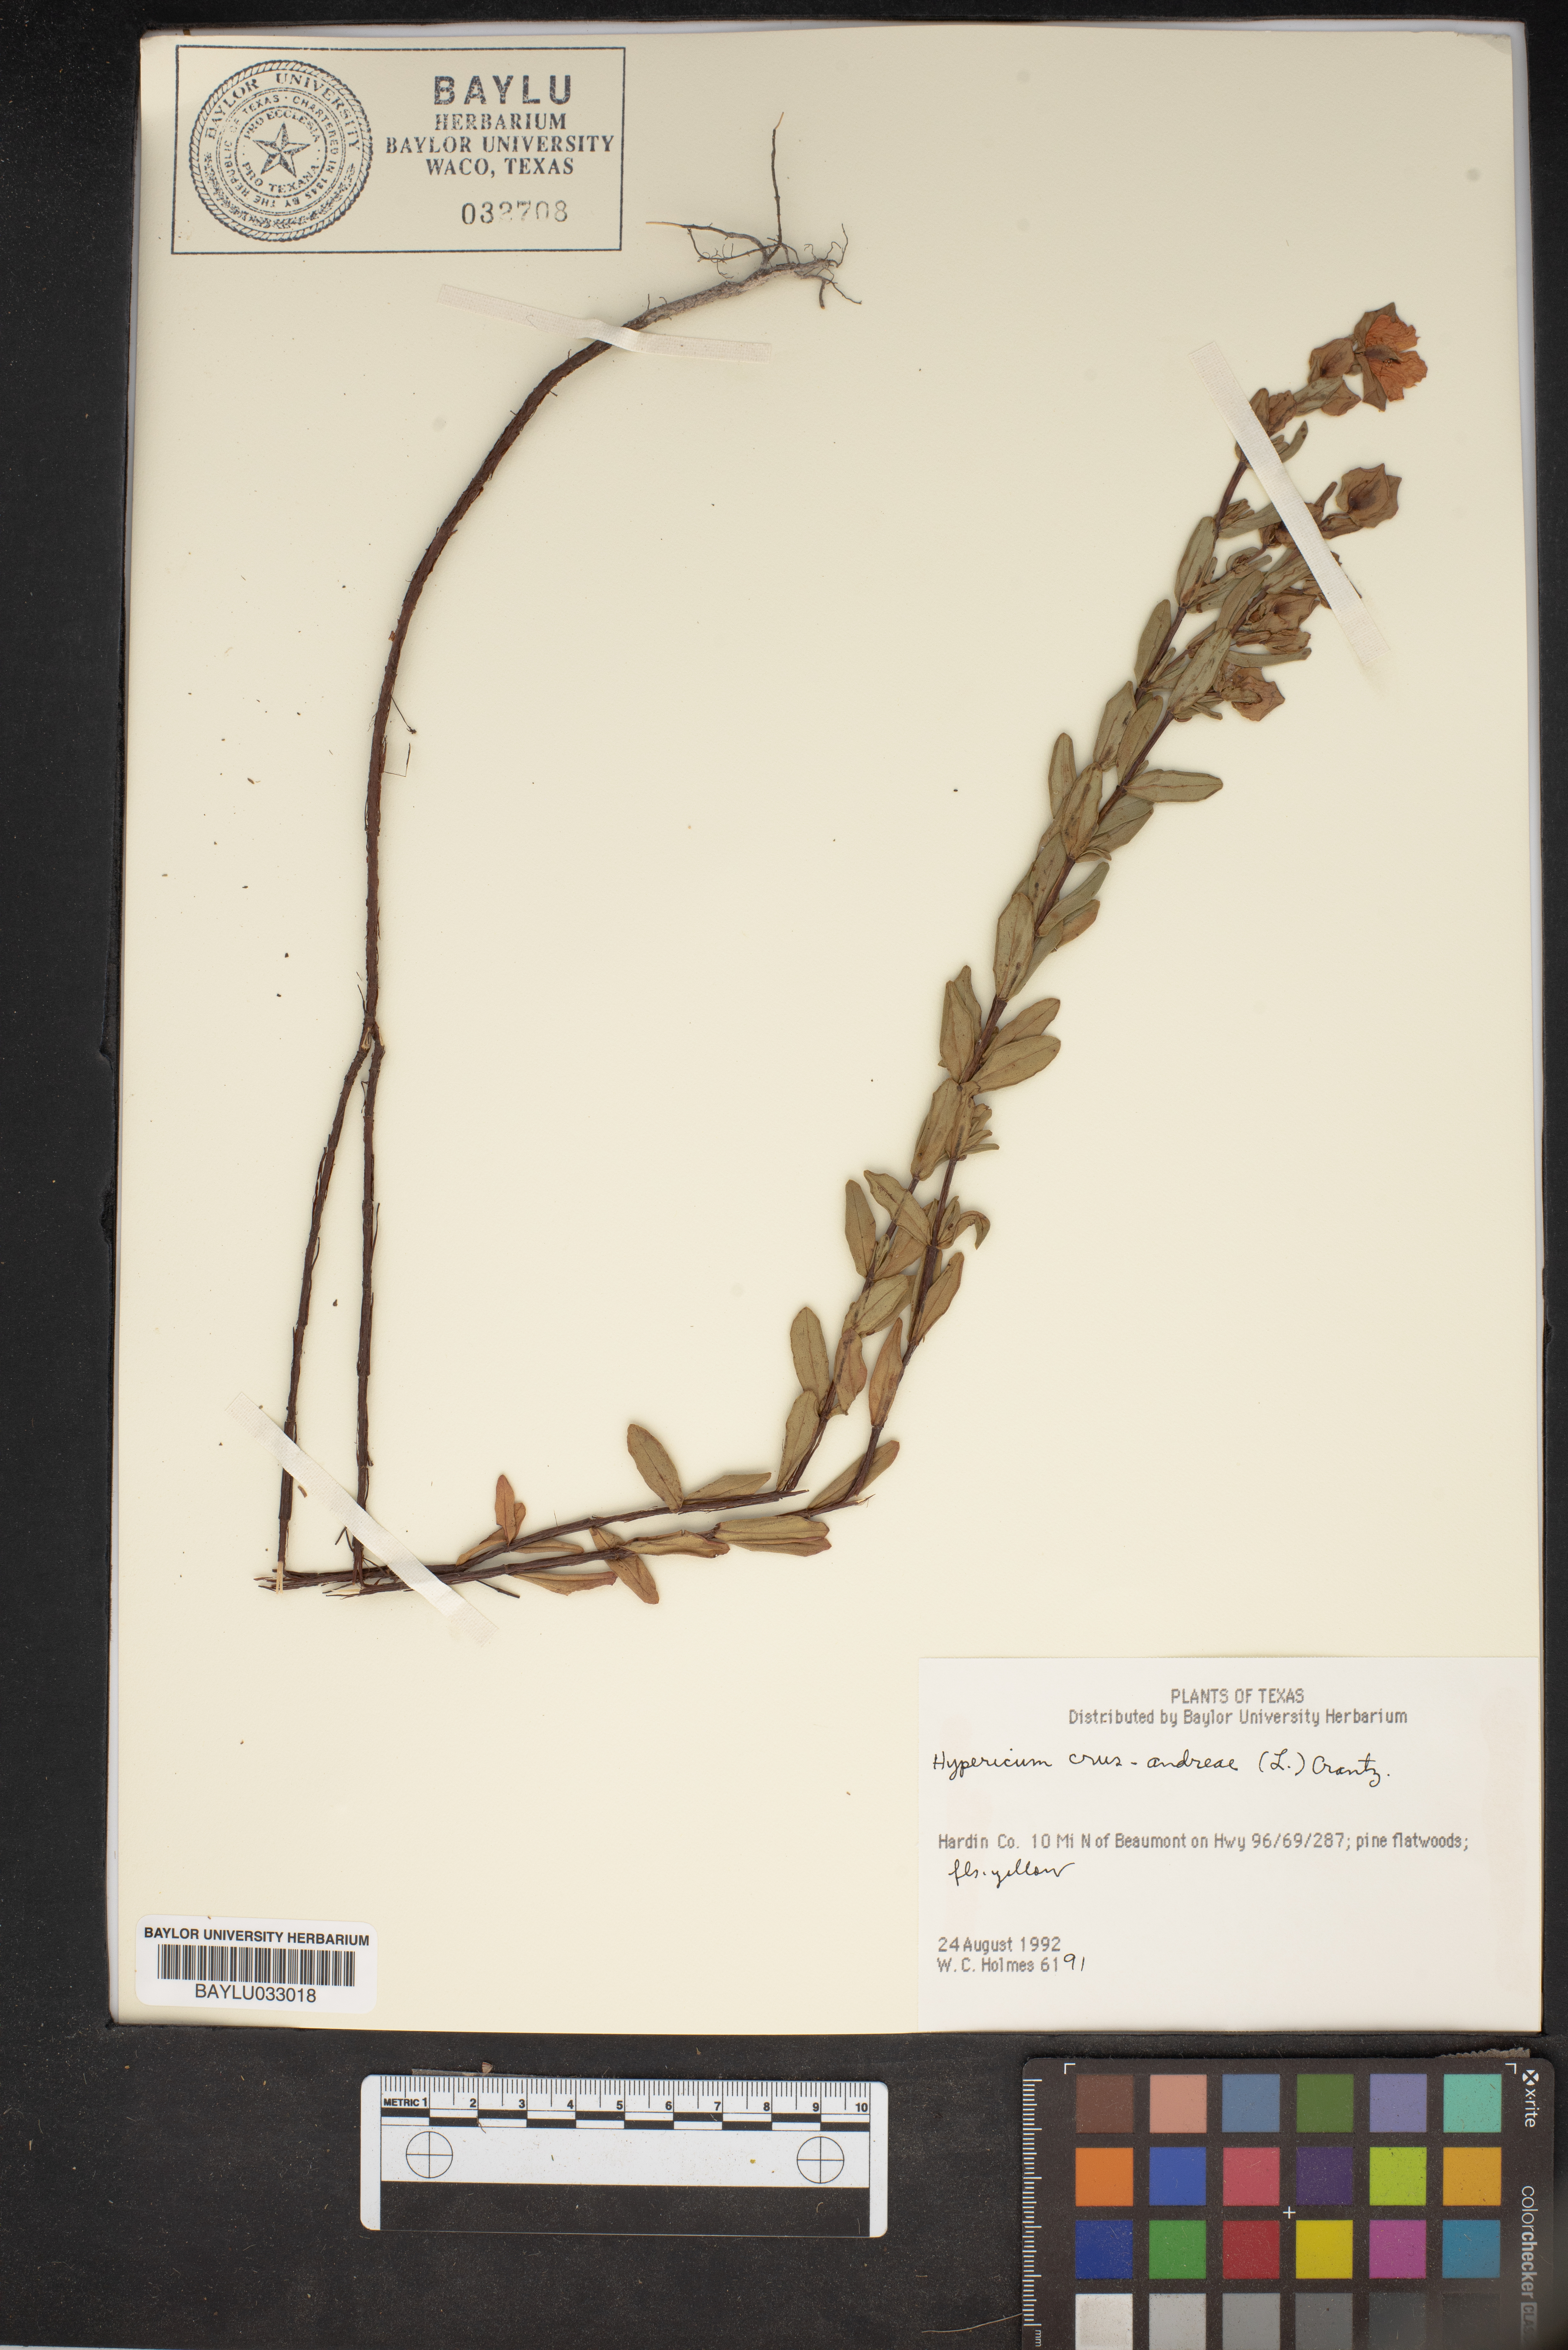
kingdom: Plantae
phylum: Tracheophyta
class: Magnoliopsida
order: Malpighiales
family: Hypericaceae
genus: Hypericum
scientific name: Hypericum crux-andreae
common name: St.-peter's-wort
